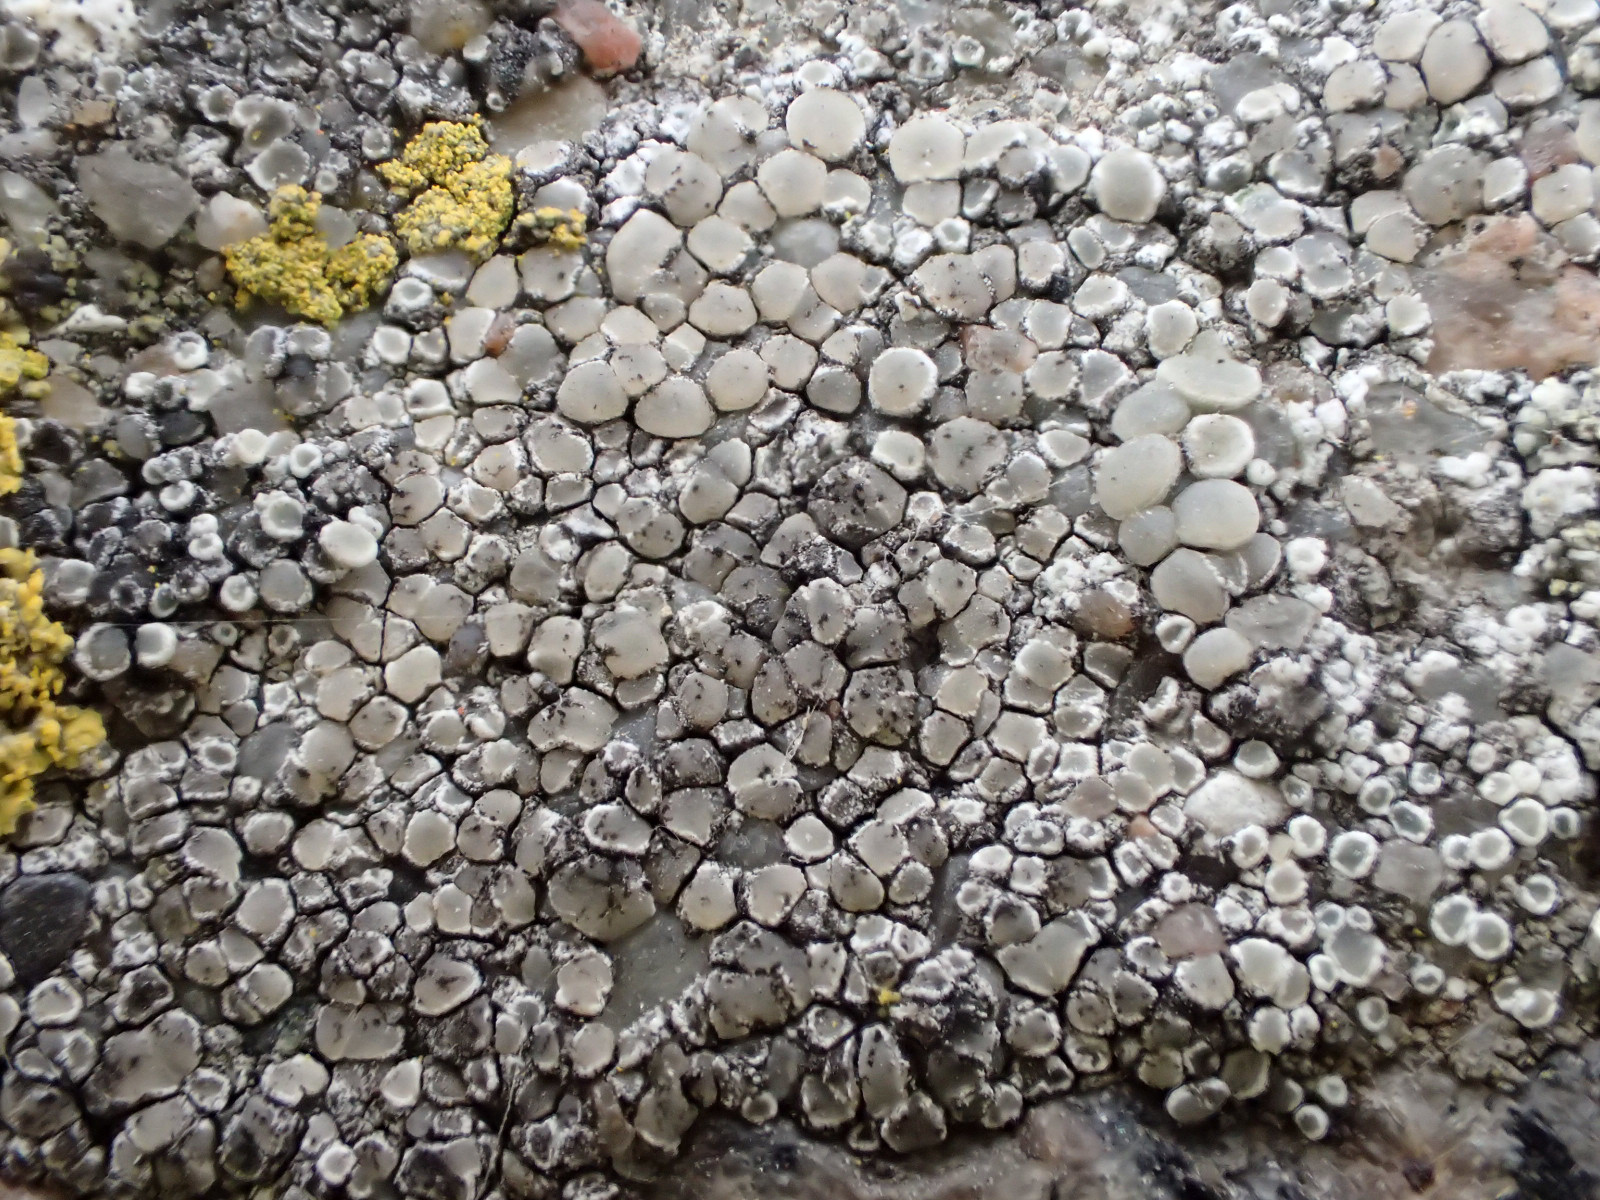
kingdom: Fungi
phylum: Ascomycota
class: Lecanoromycetes
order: Lecanorales
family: Lecanoraceae
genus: Lecanora
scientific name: Lecanora polytropa
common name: bleggrøn kantskivelav
